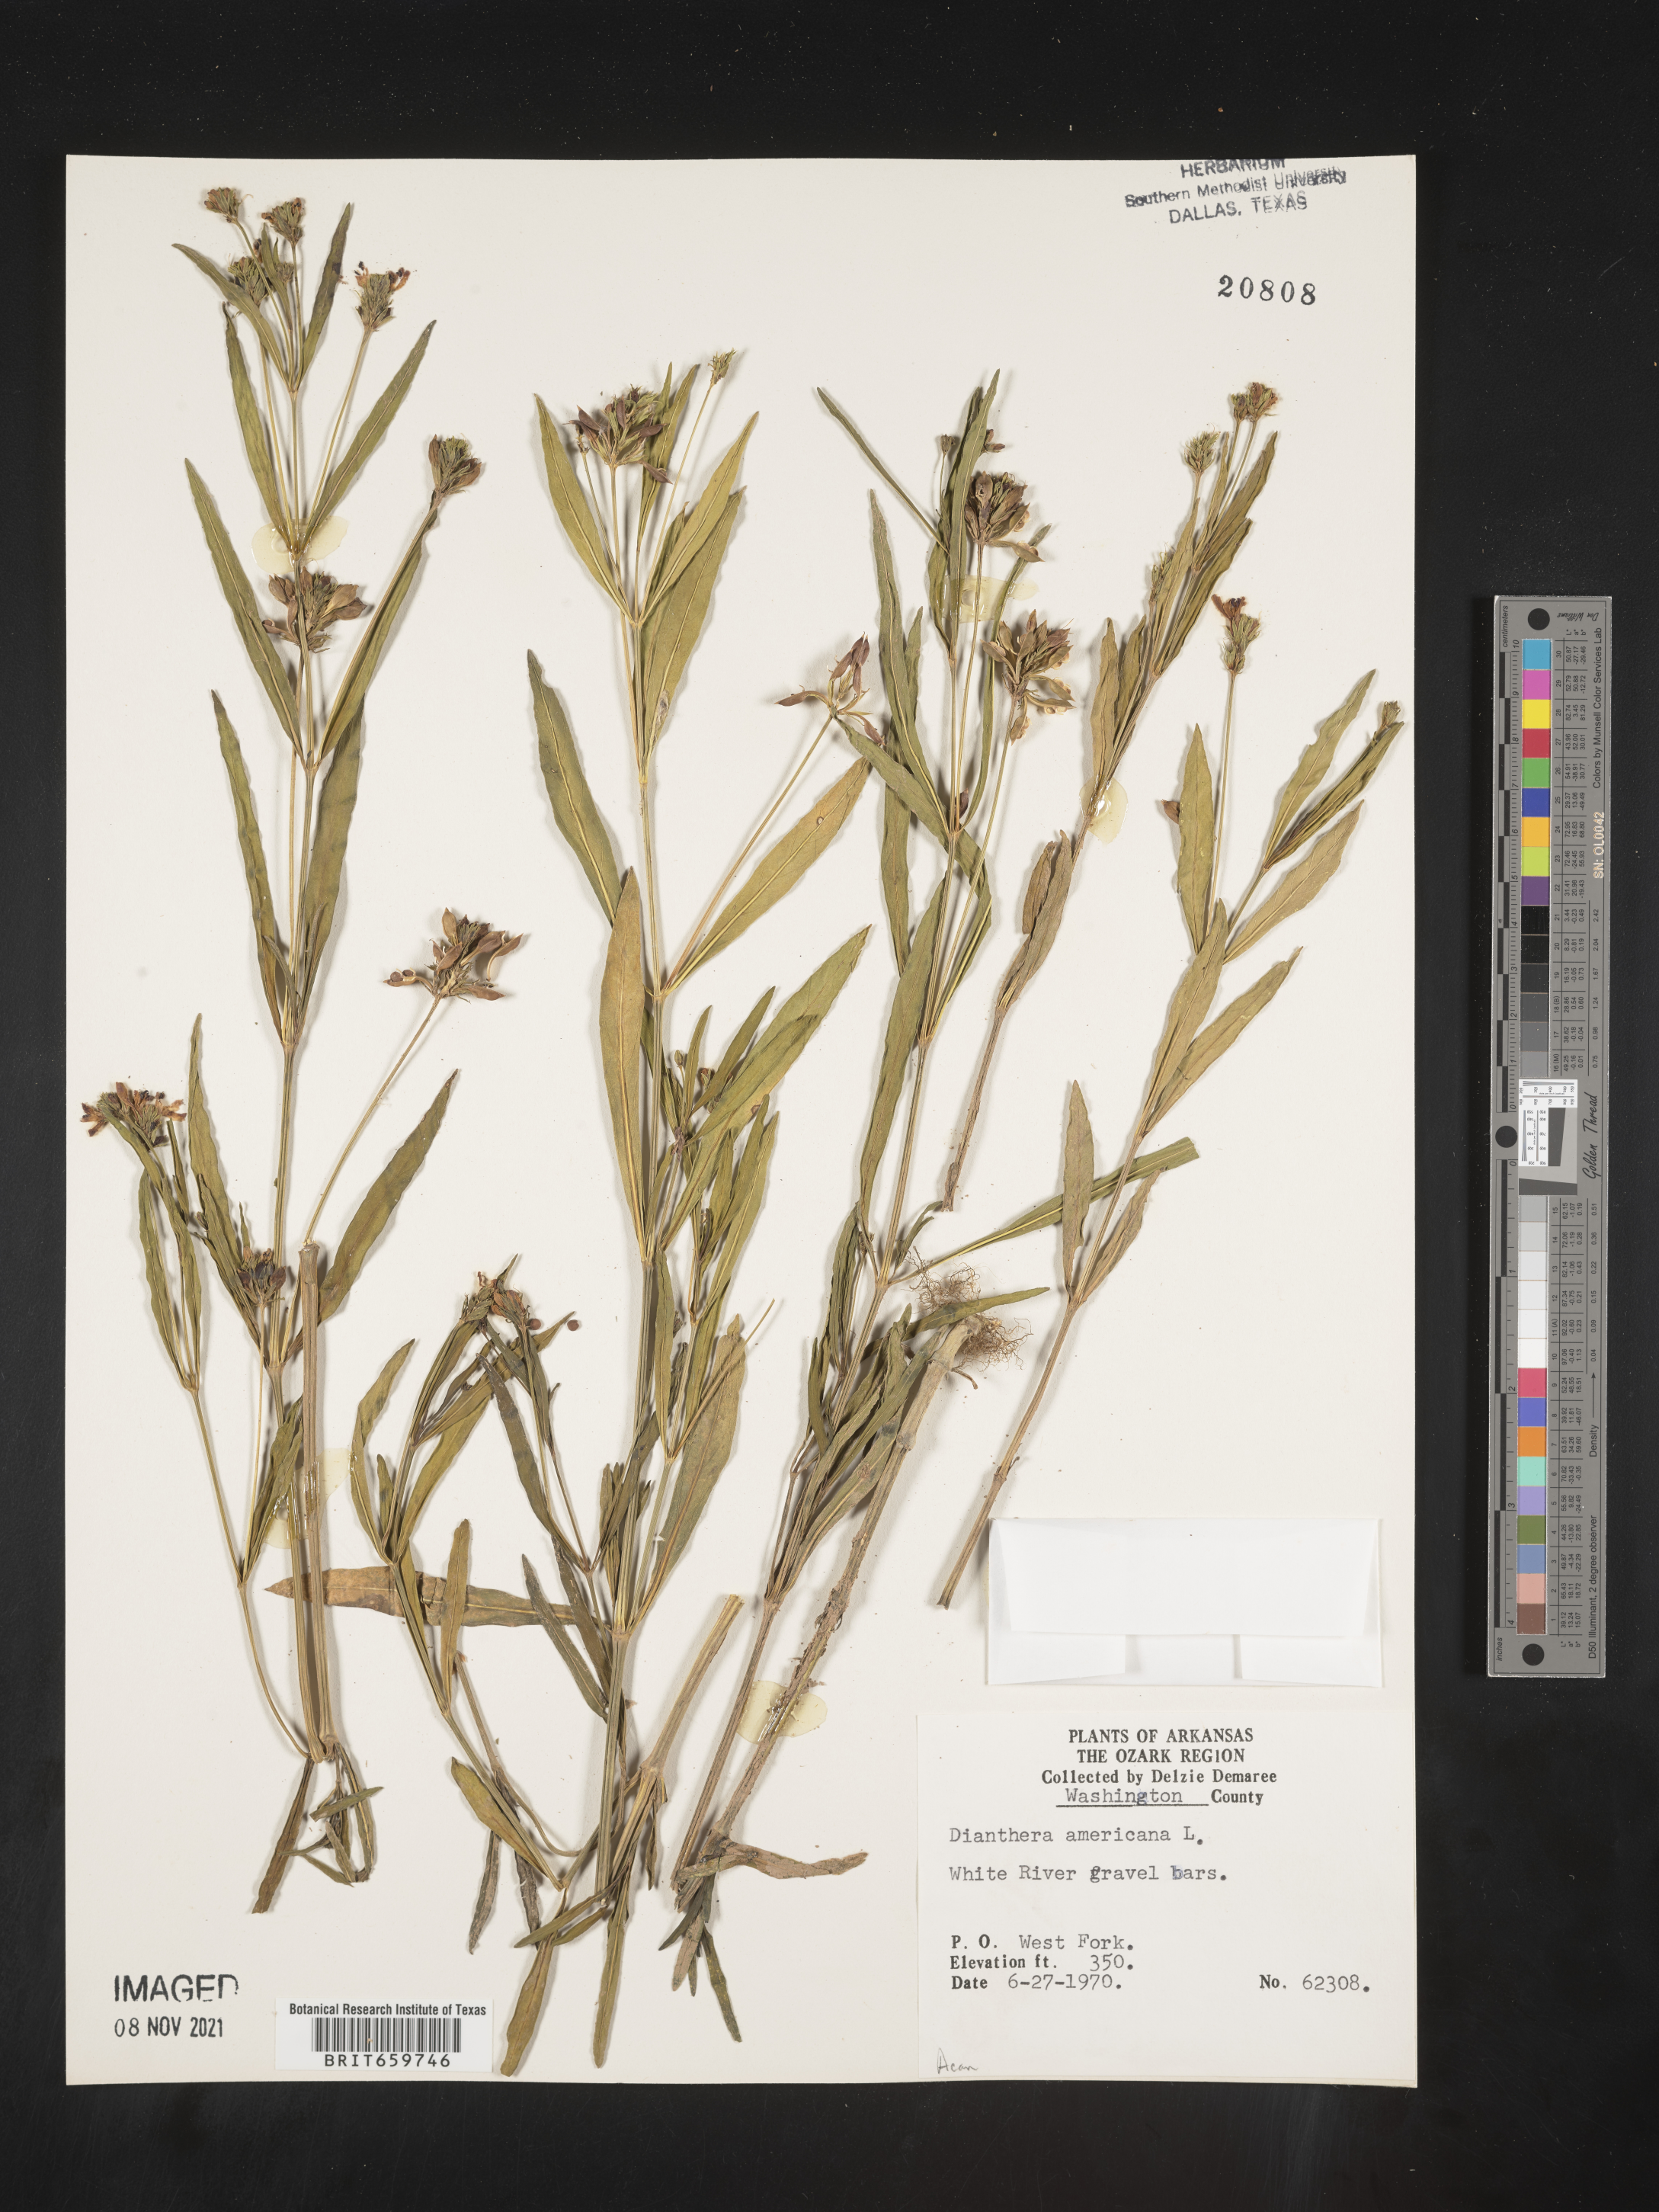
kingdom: Plantae
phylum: Tracheophyta
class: Magnoliopsida
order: Lamiales
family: Acanthaceae
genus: Dianthera
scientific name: Dianthera americana
